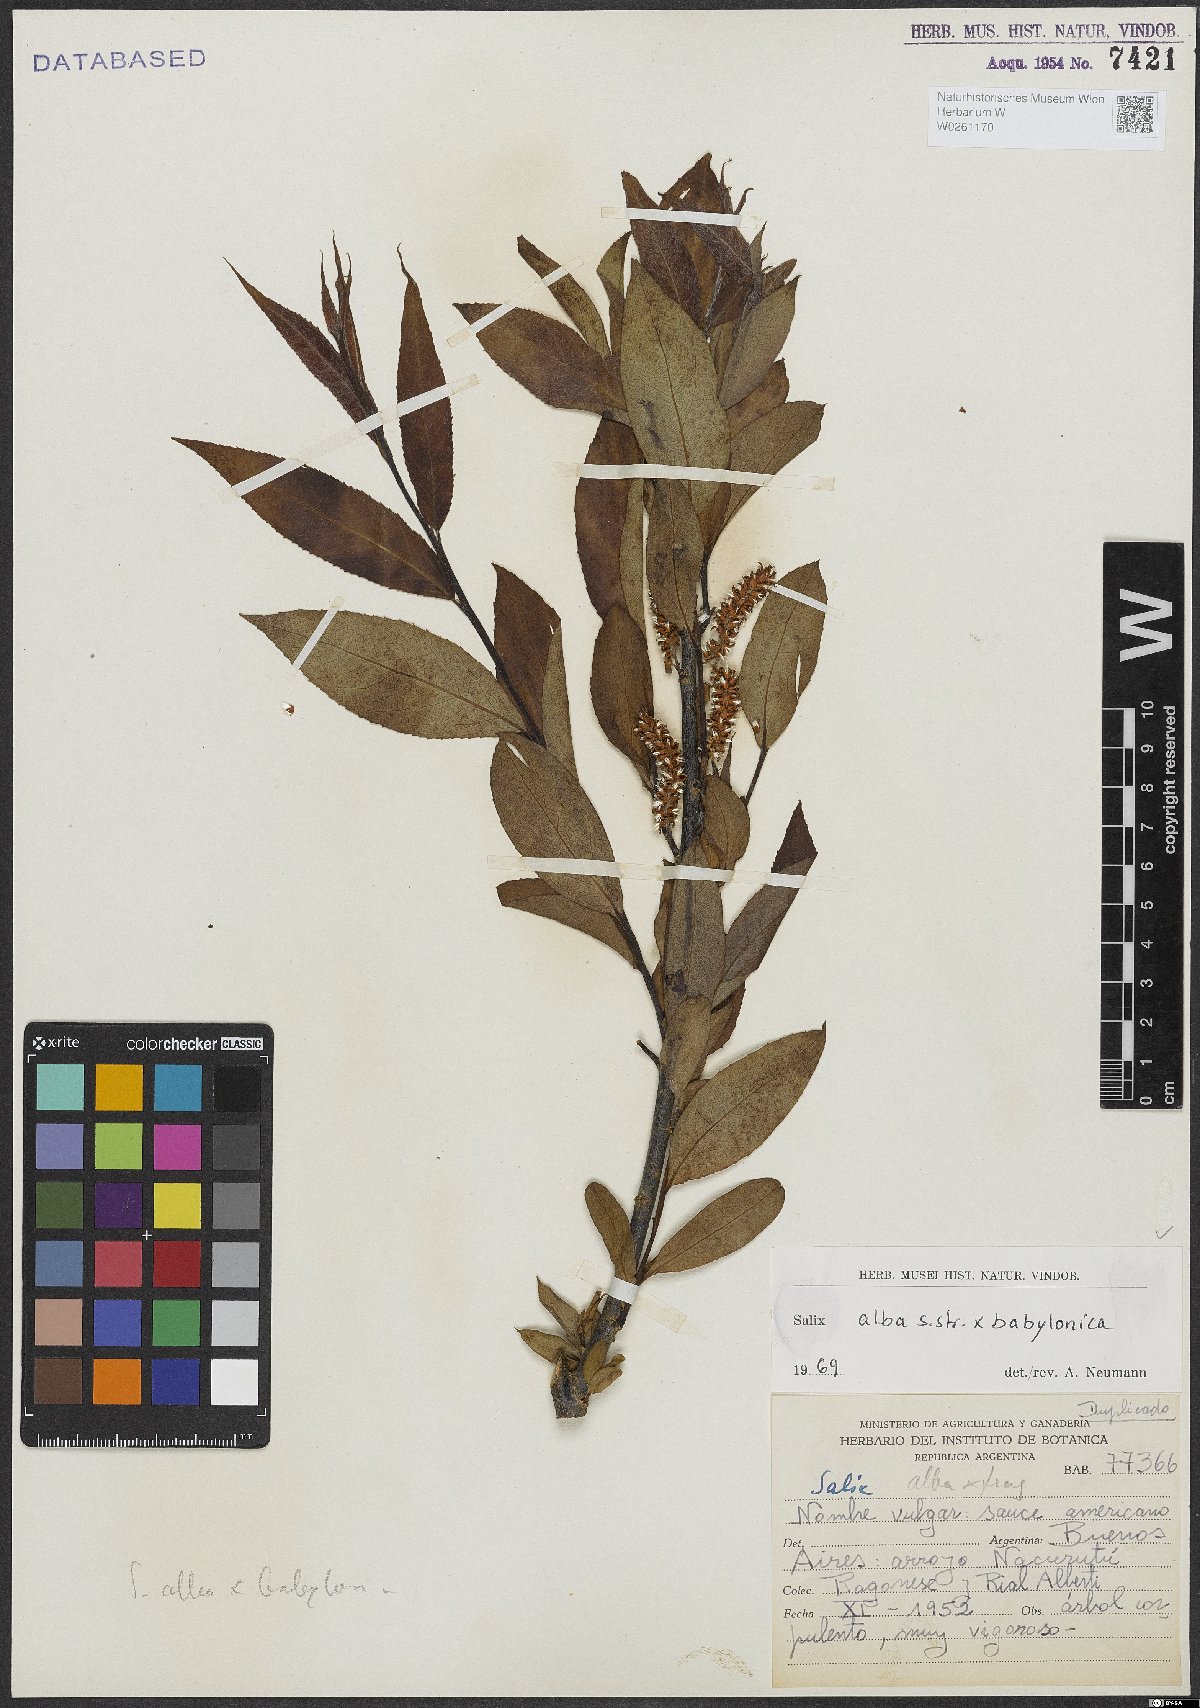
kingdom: Plantae
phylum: Tracheophyta
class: Magnoliopsida
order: Malpighiales
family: Salicaceae
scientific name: Salicaceae
